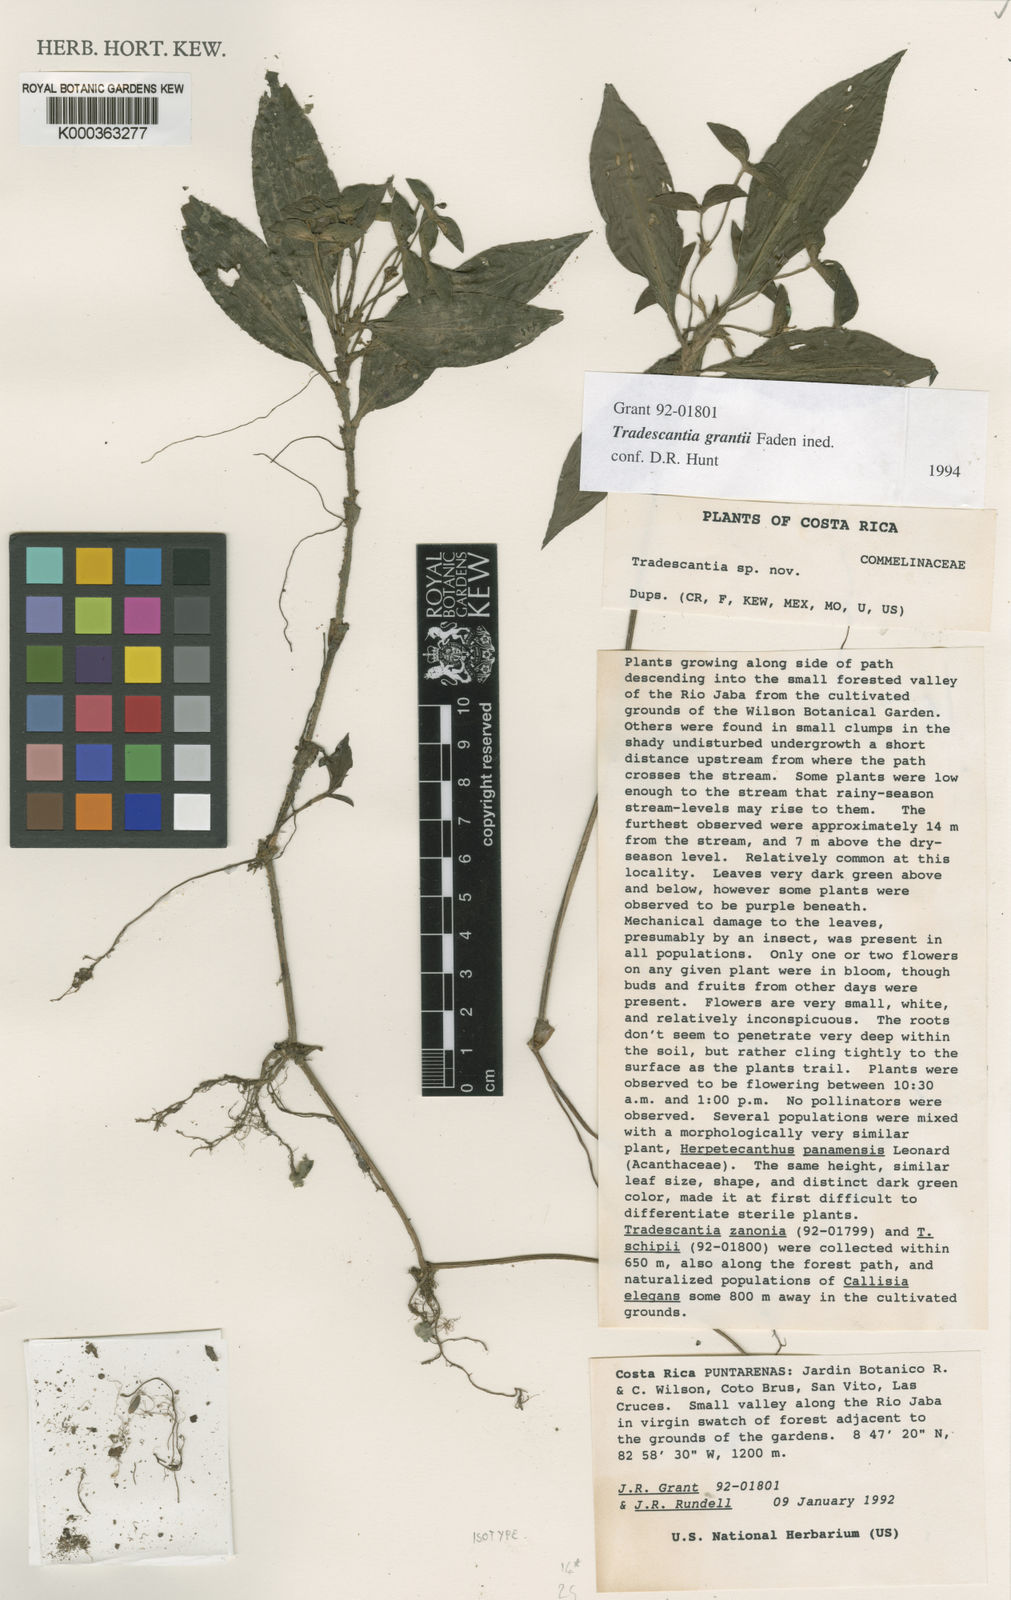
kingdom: Plantae
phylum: Tracheophyta
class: Liliopsida
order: Commelinales
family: Commelinaceae
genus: Tradescantia
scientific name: Tradescantia grantii
